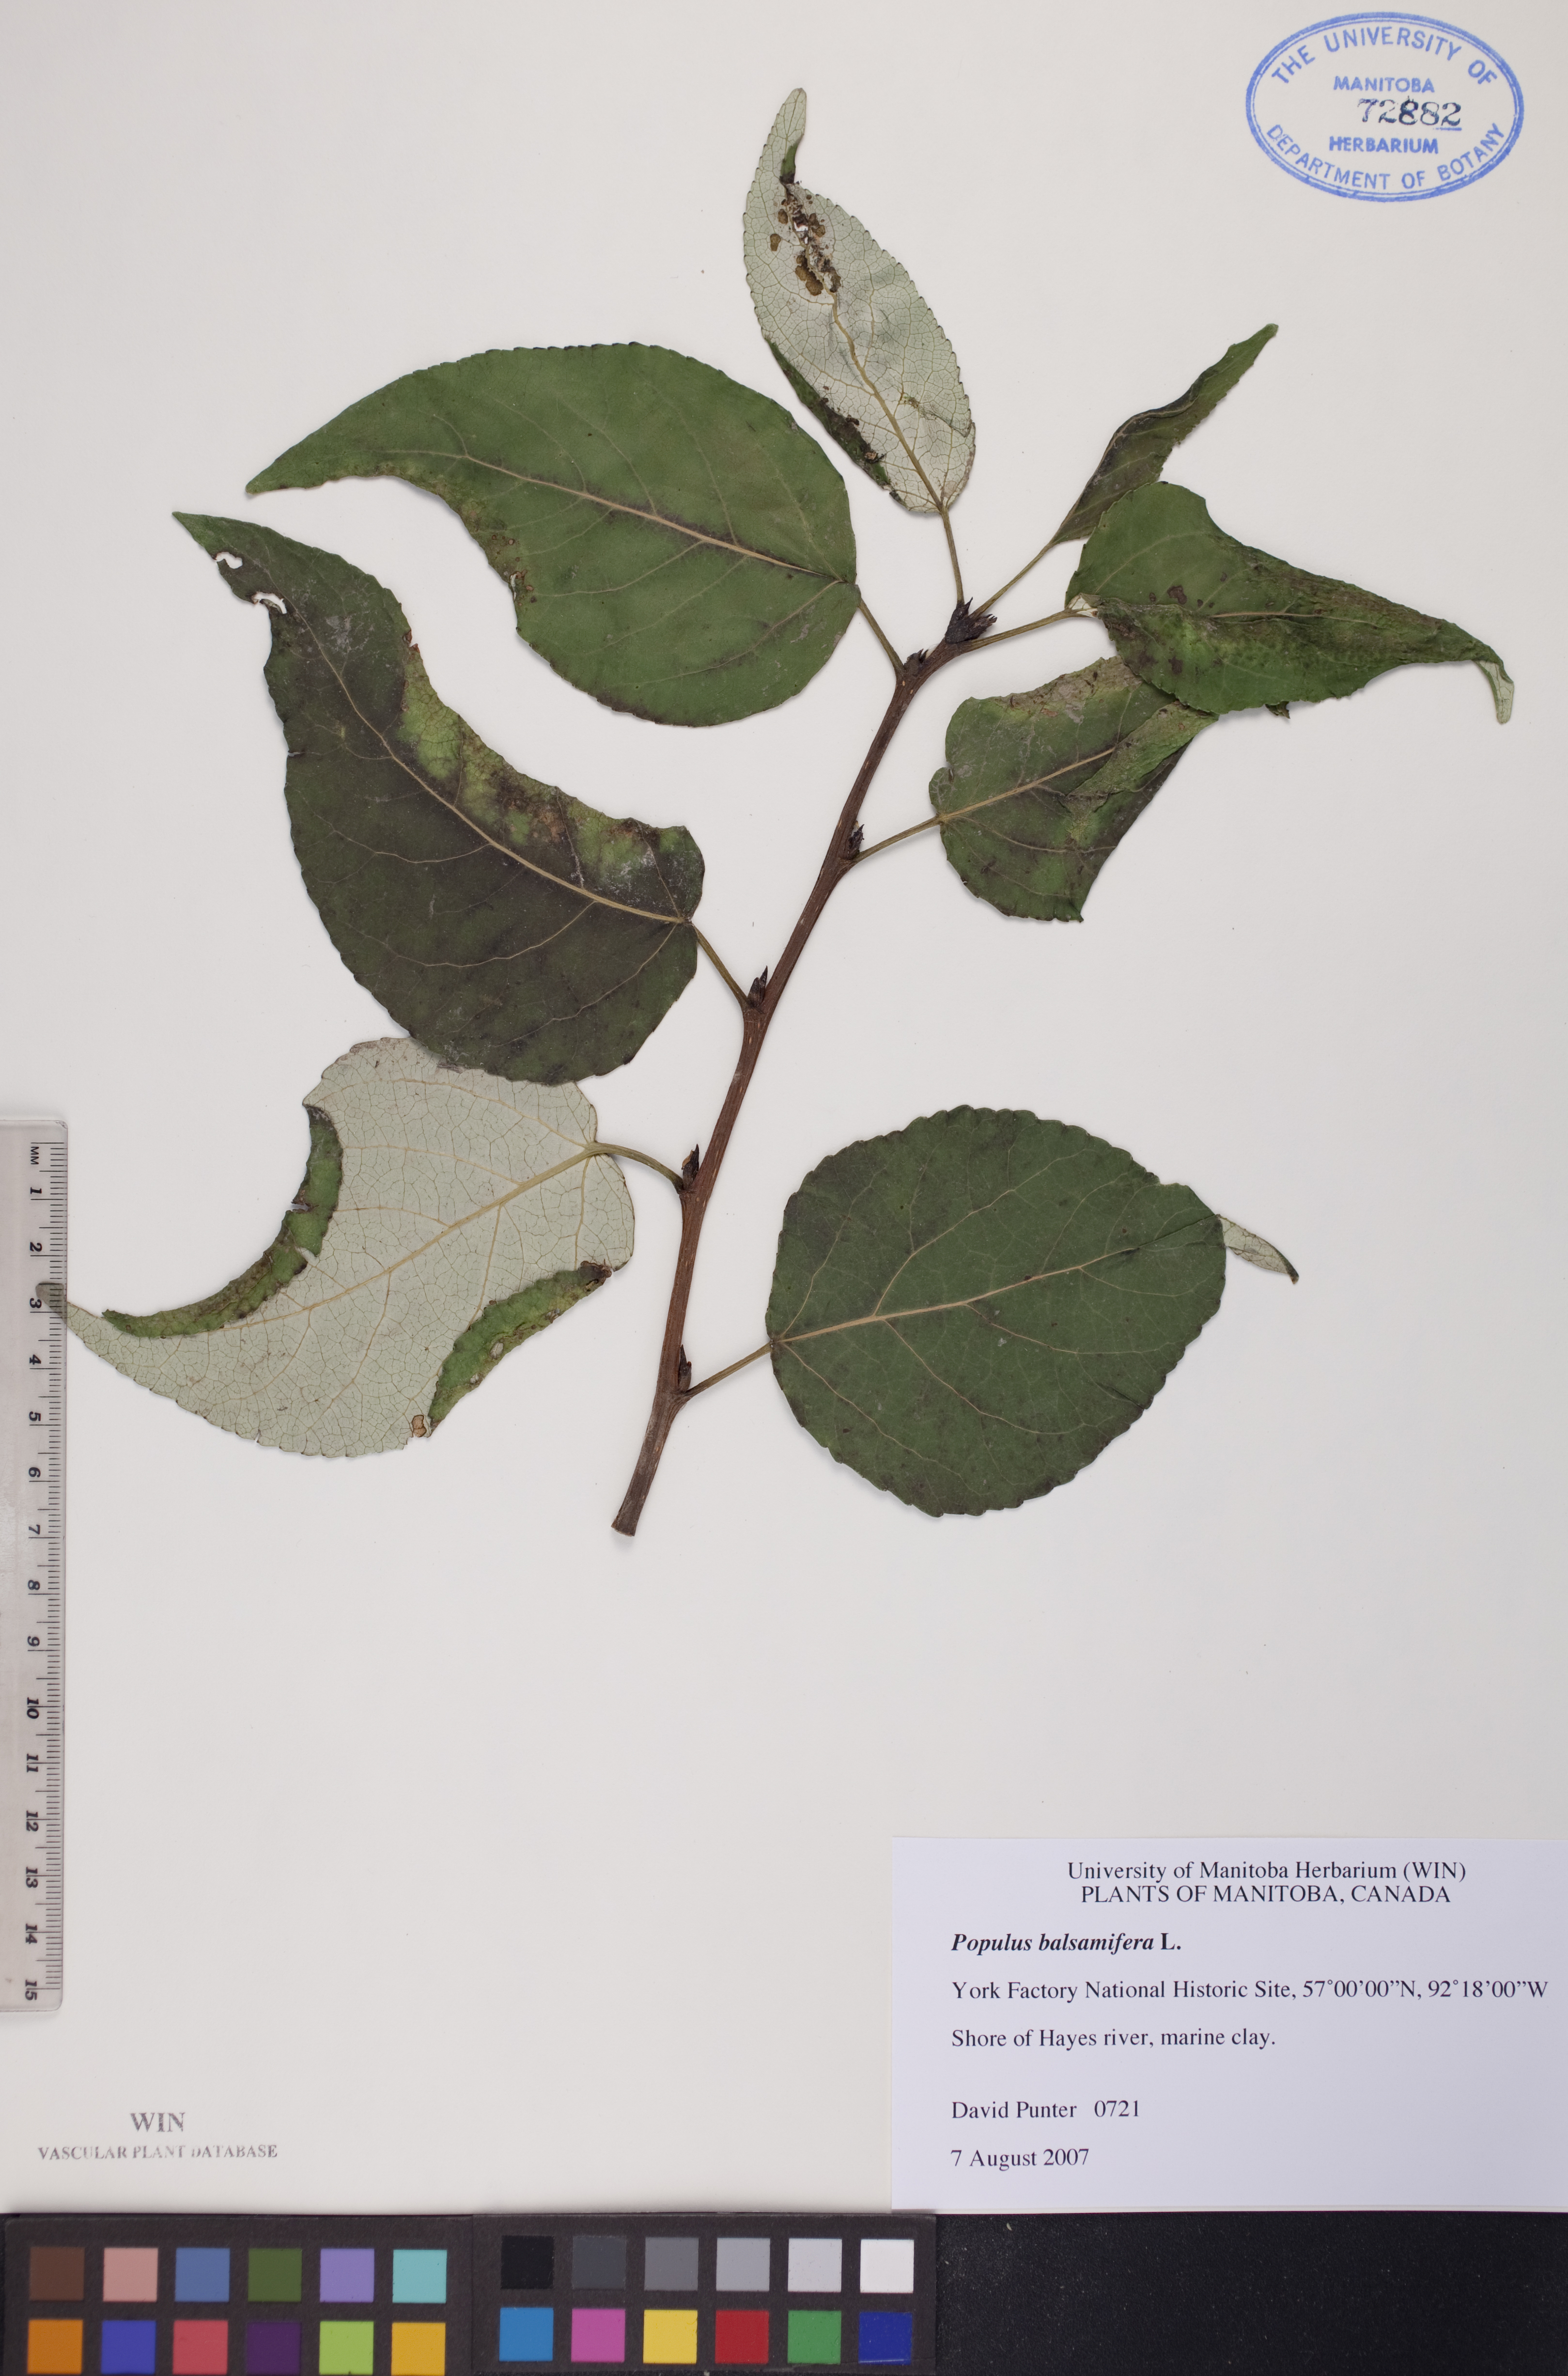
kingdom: Plantae
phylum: Tracheophyta
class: Magnoliopsida
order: Malpighiales
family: Salicaceae
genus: Populus
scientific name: Populus balsamifera
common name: Balsam poplar
